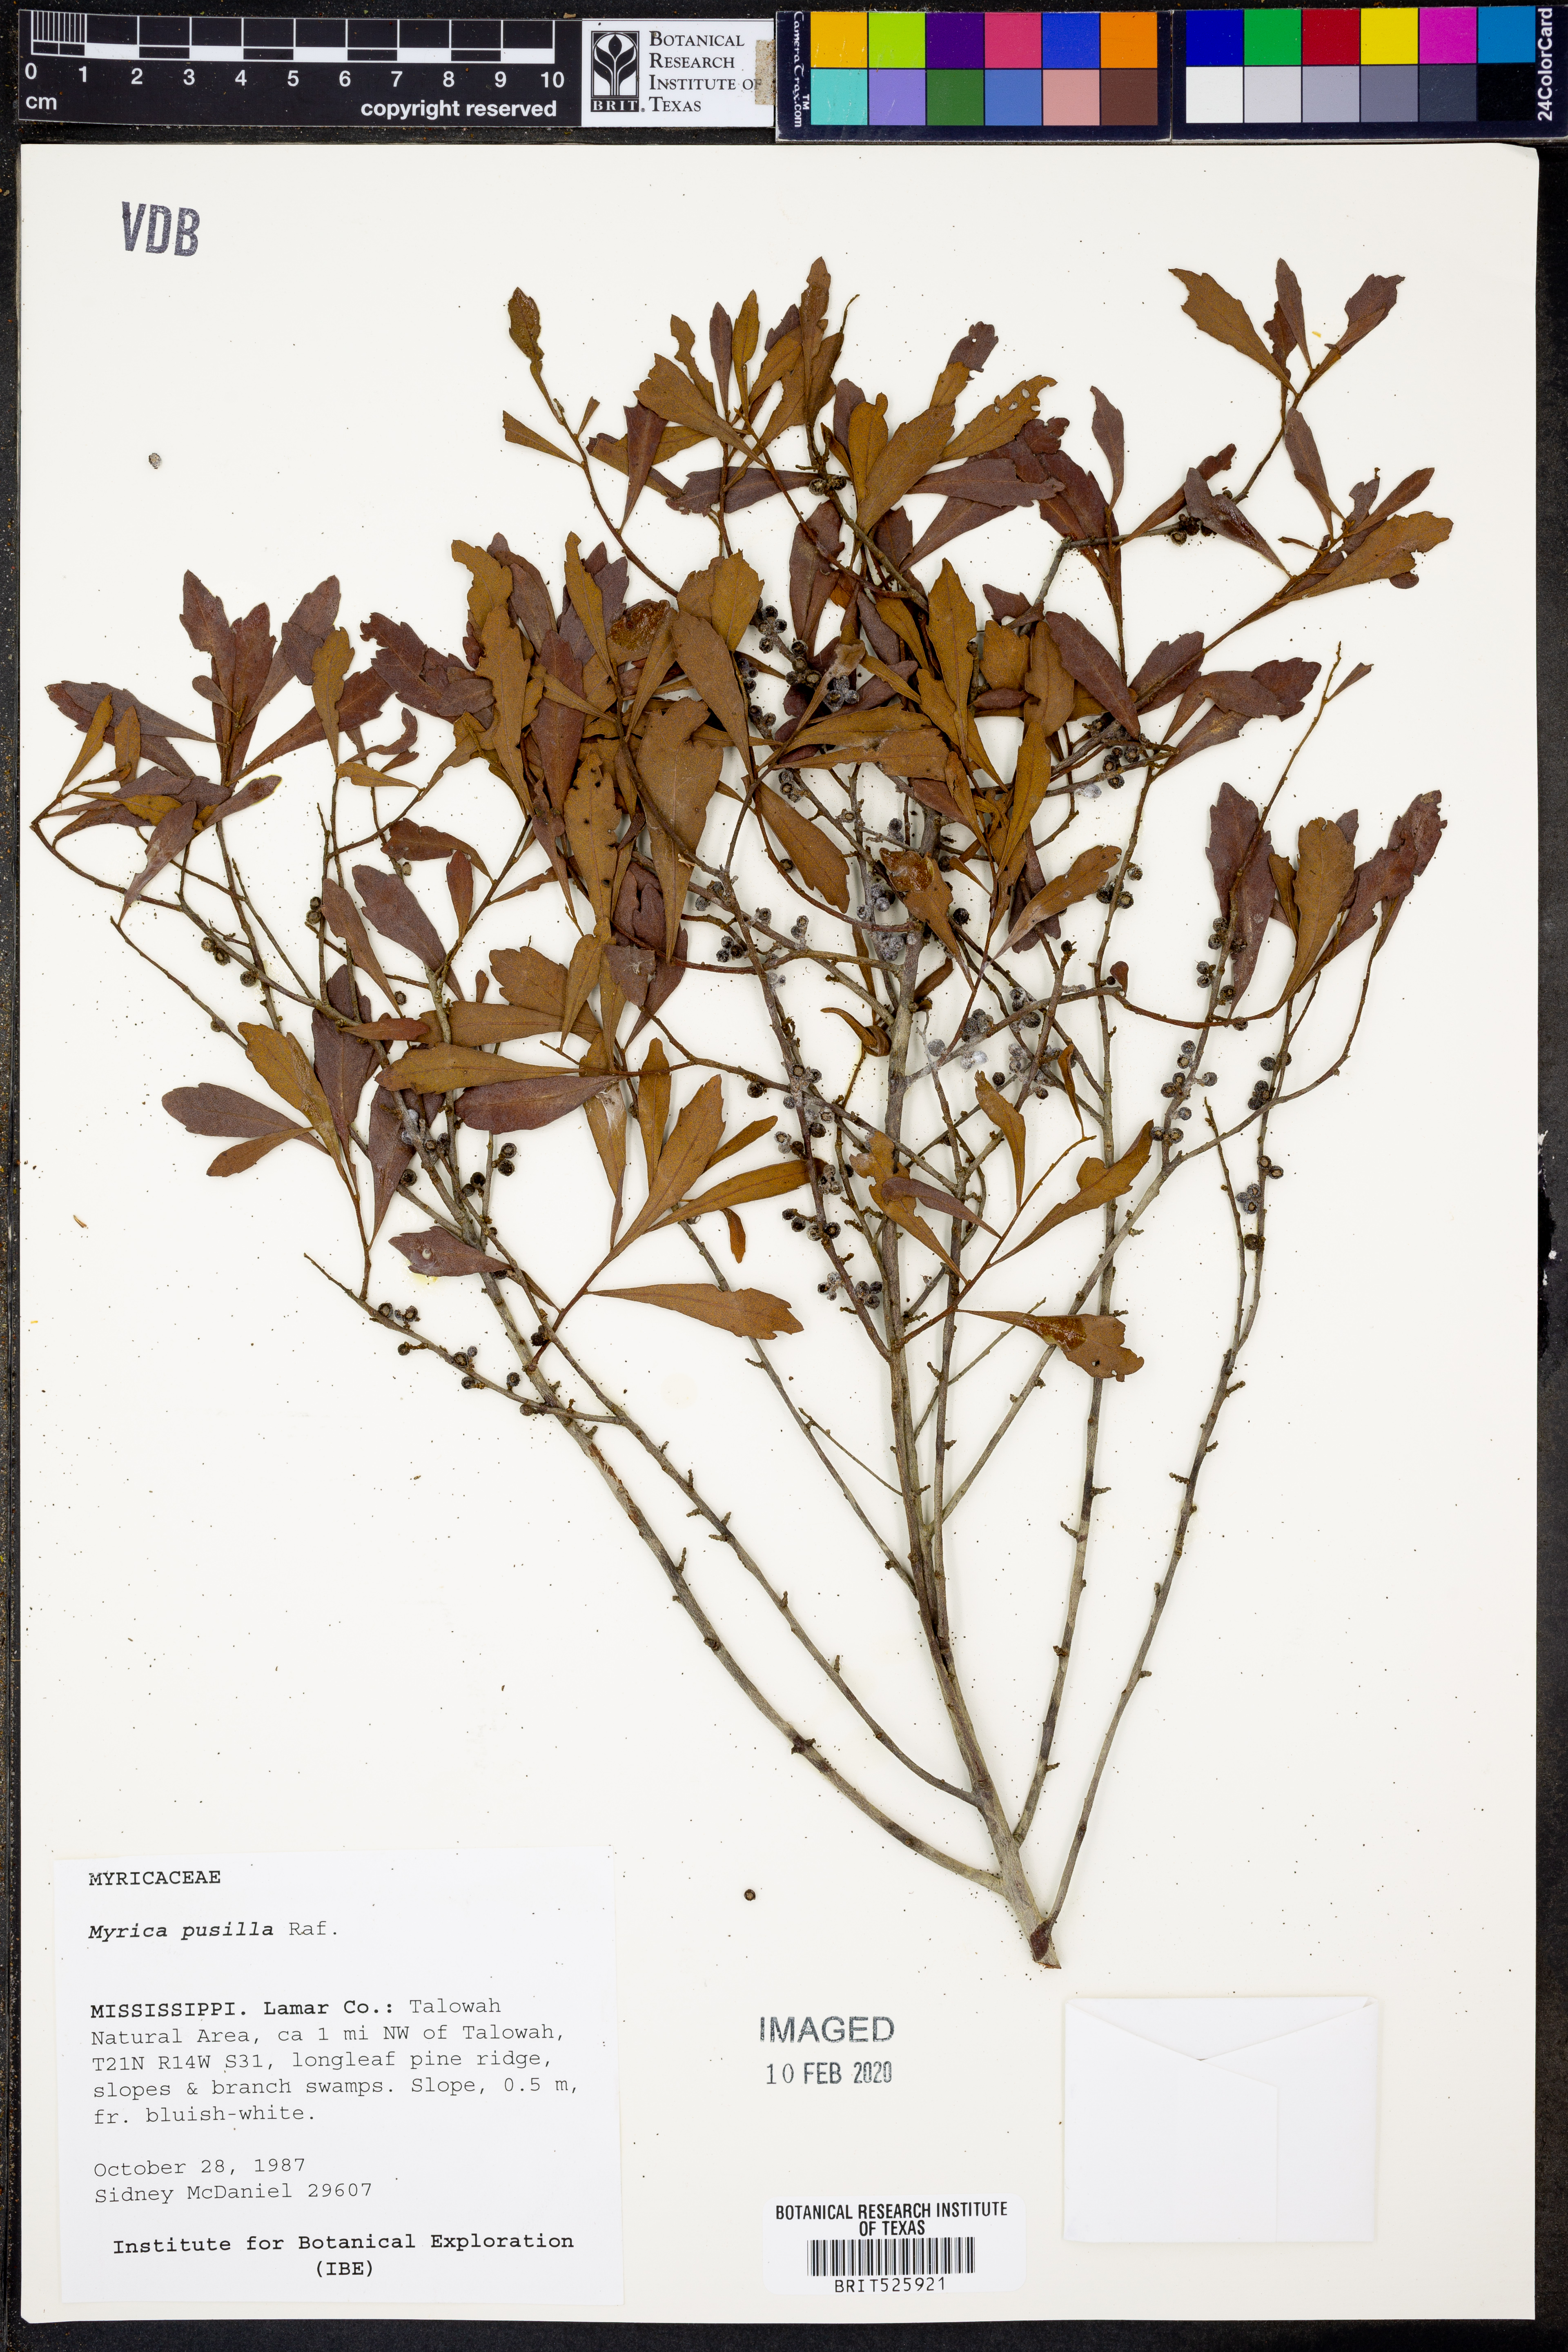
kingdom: Plantae
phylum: Tracheophyta
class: Magnoliopsida
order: Fagales
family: Myricaceae
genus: Morella
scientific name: Morella cerifera
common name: Wax myrtle
